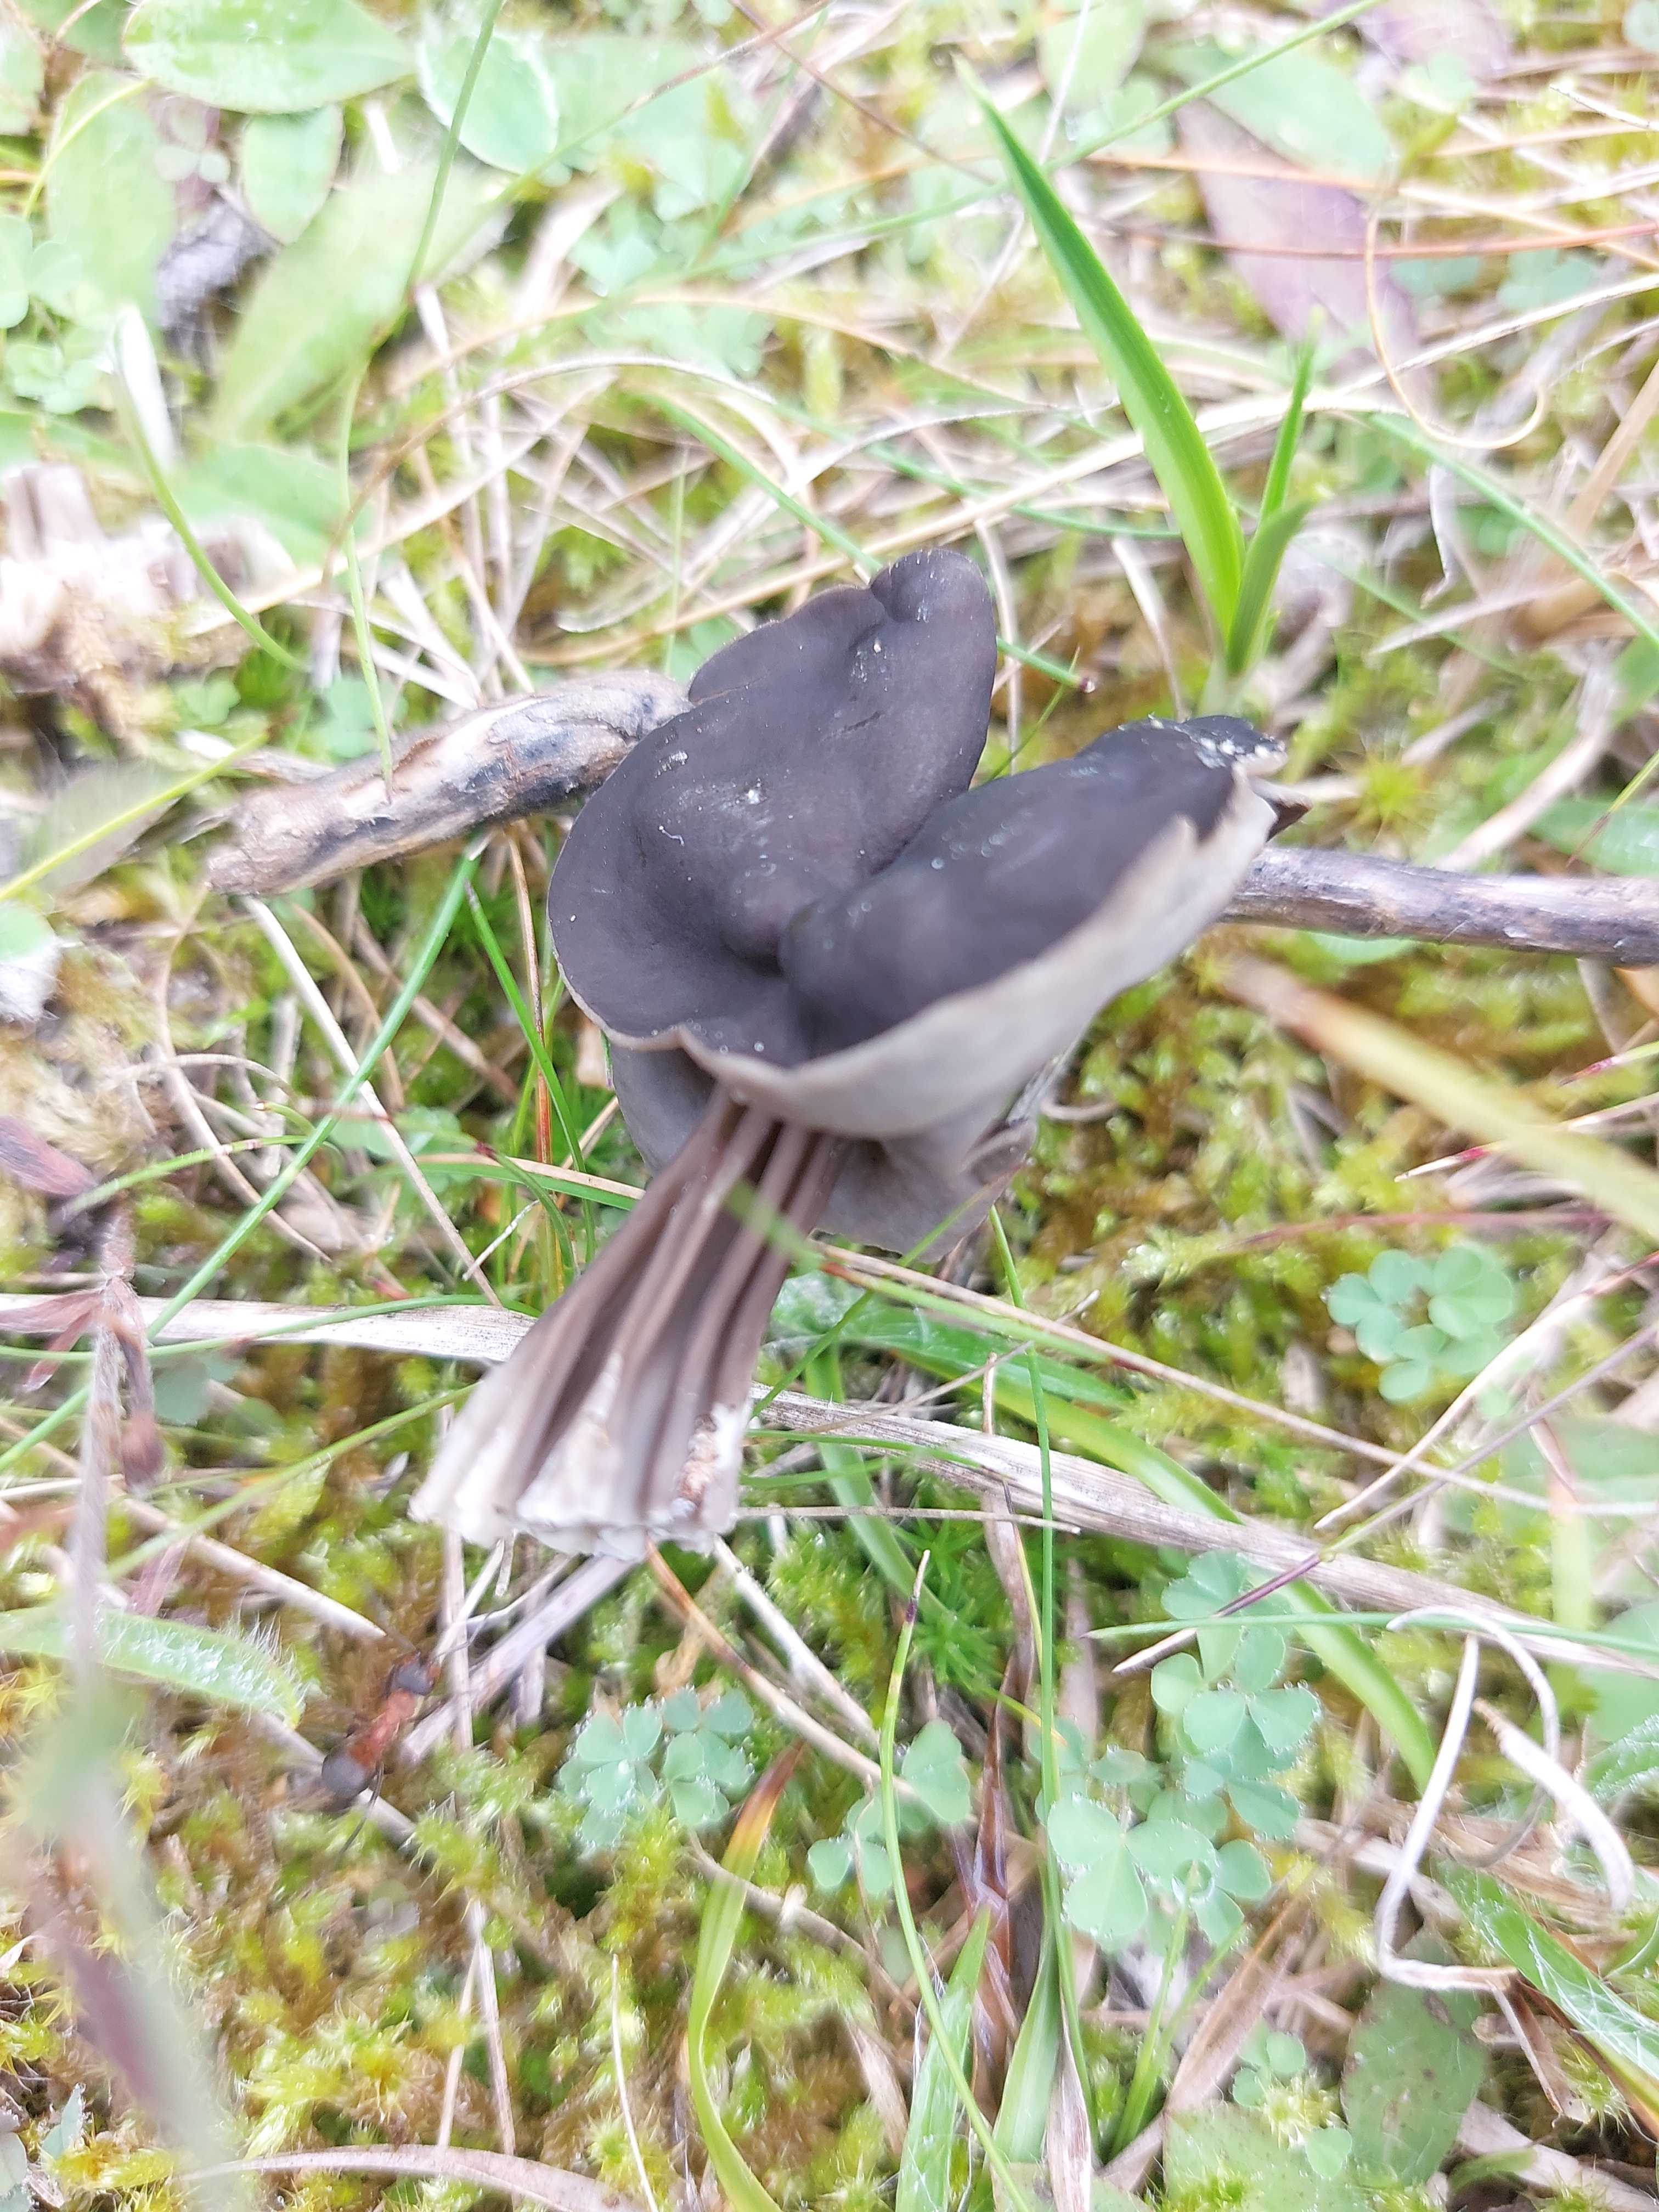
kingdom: Fungi
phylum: Ascomycota
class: Pezizomycetes
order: Pezizales
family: Helvellaceae
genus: Helvella
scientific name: Helvella lacunosa
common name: grubet foldhat
